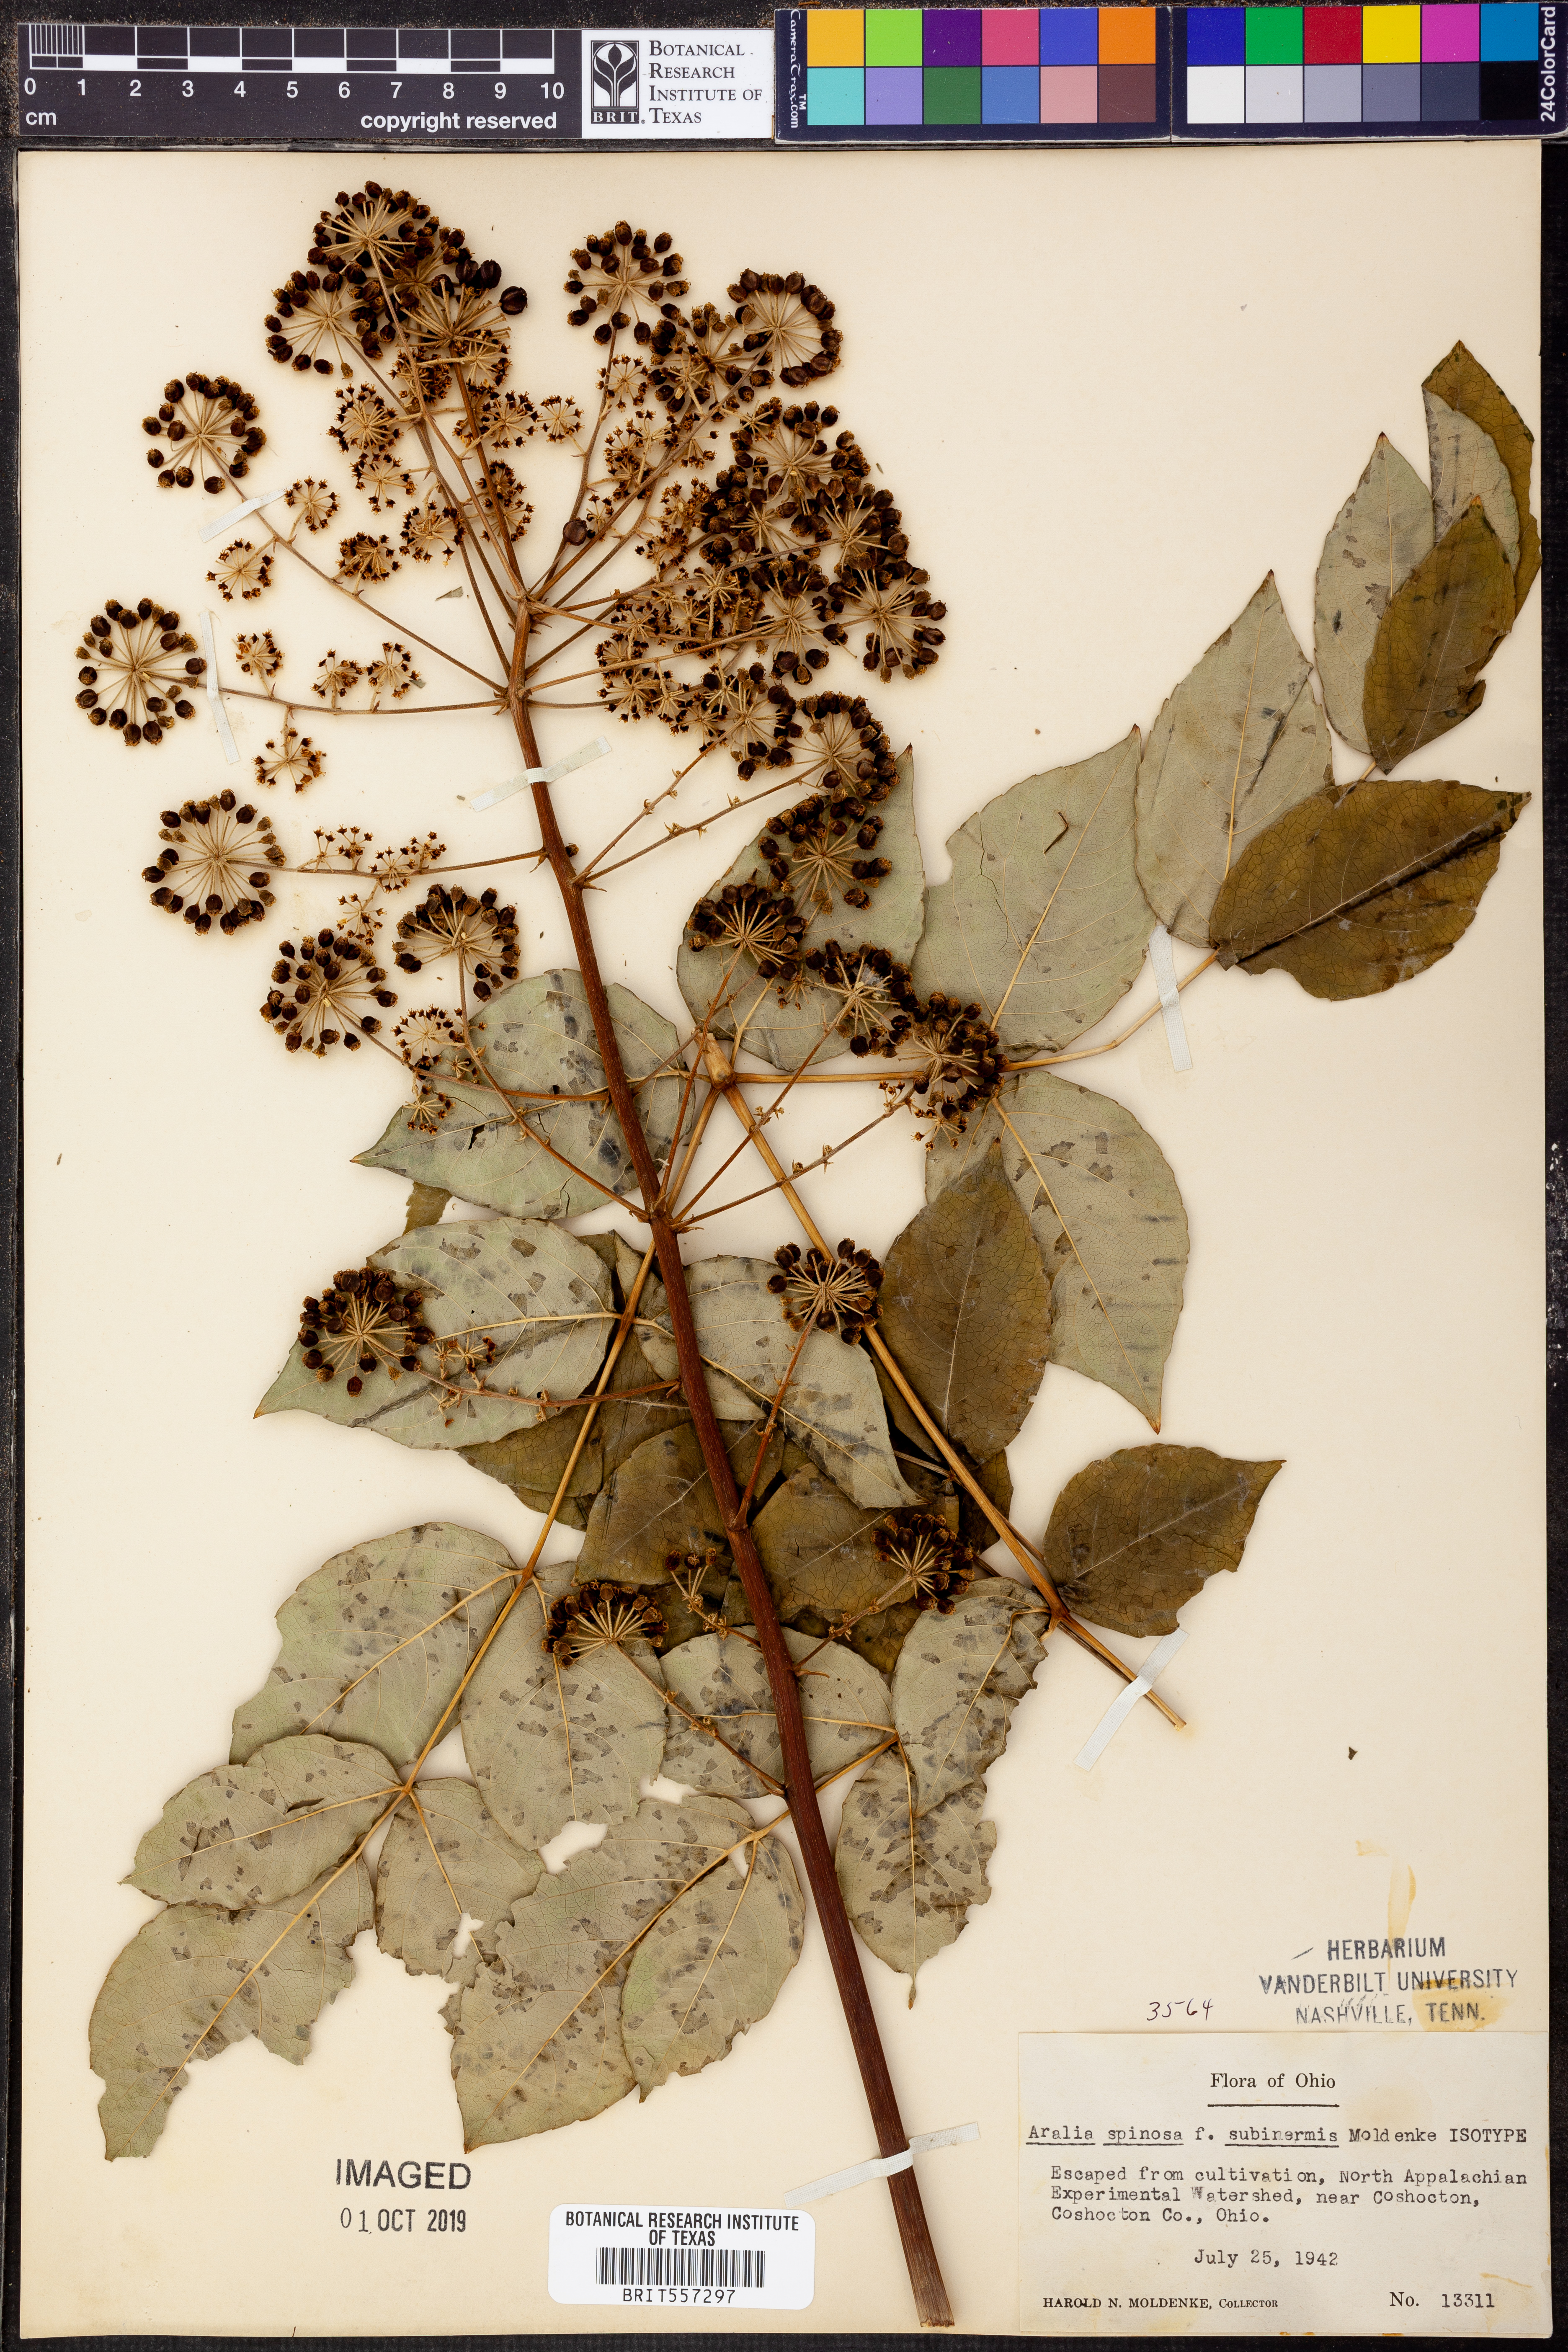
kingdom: Plantae
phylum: Tracheophyta
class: Magnoliopsida
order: Apiales
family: Araliaceae
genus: Aralia
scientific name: Aralia spinosa
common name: Hercules'-club
